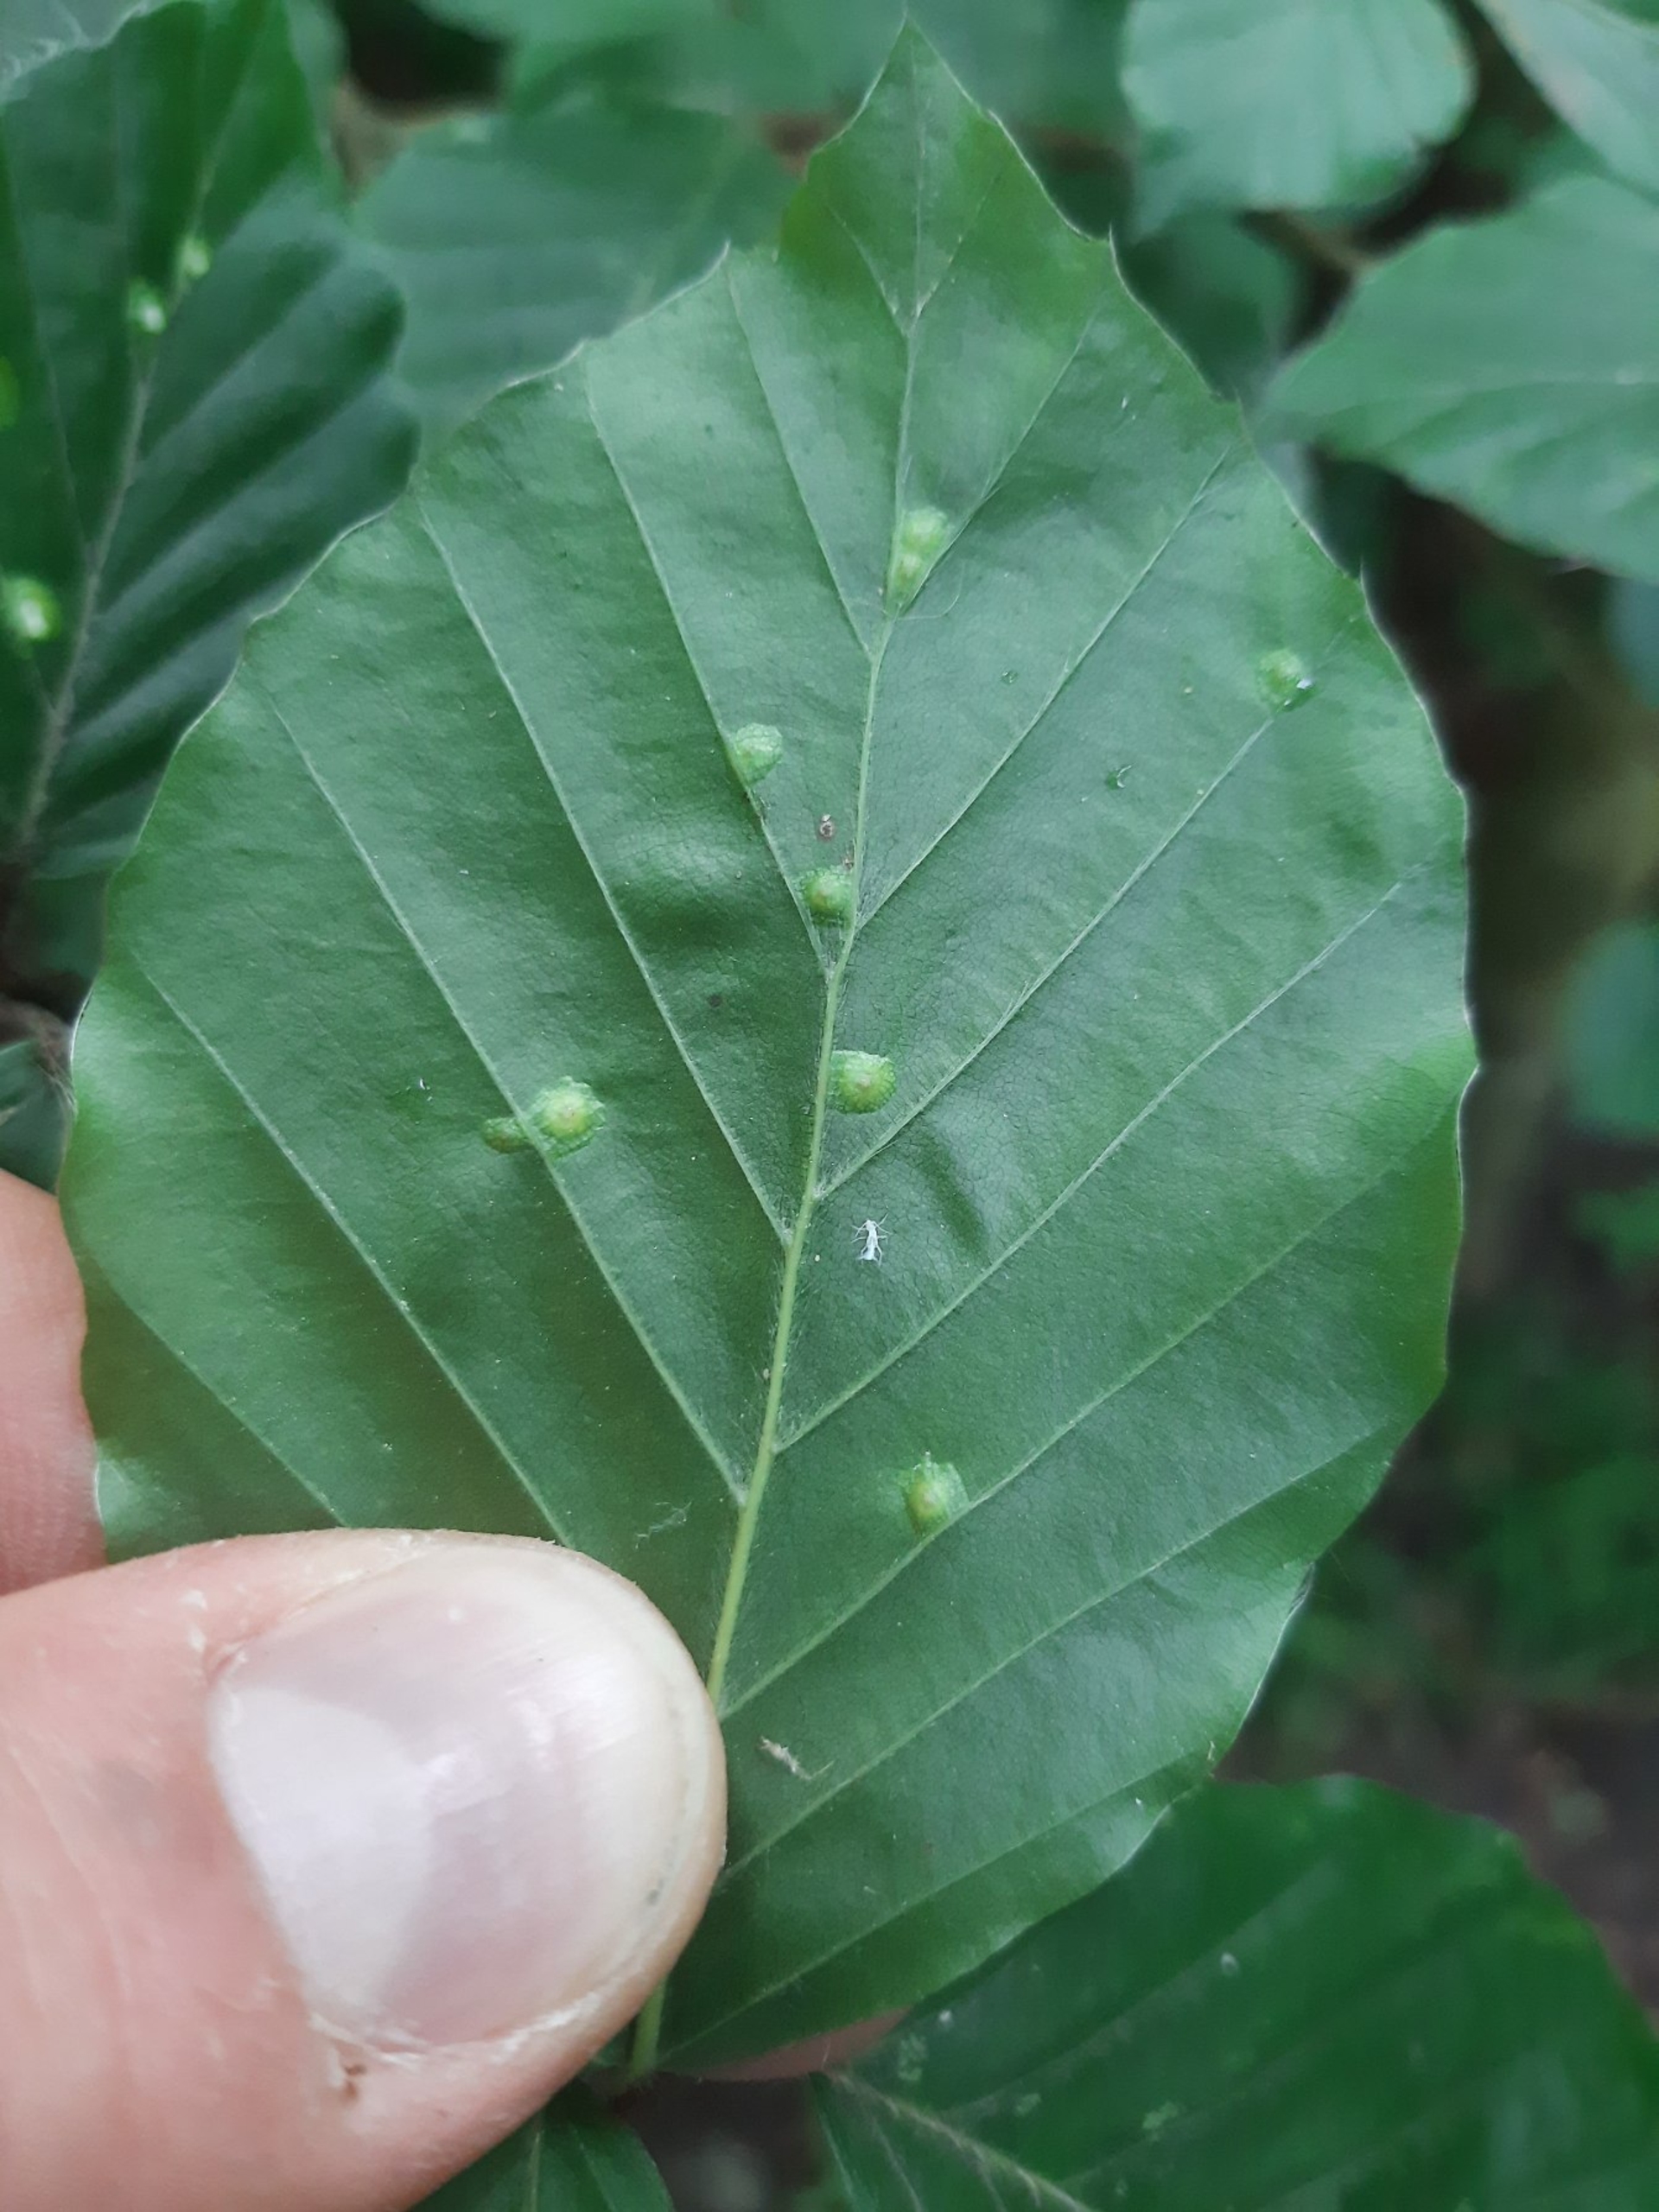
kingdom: Animalia
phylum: Arthropoda
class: Insecta
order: Diptera
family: Cecidomyiidae
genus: Hartigiola
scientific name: Hartigiola annulipes
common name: Skovtroldegalmyg
